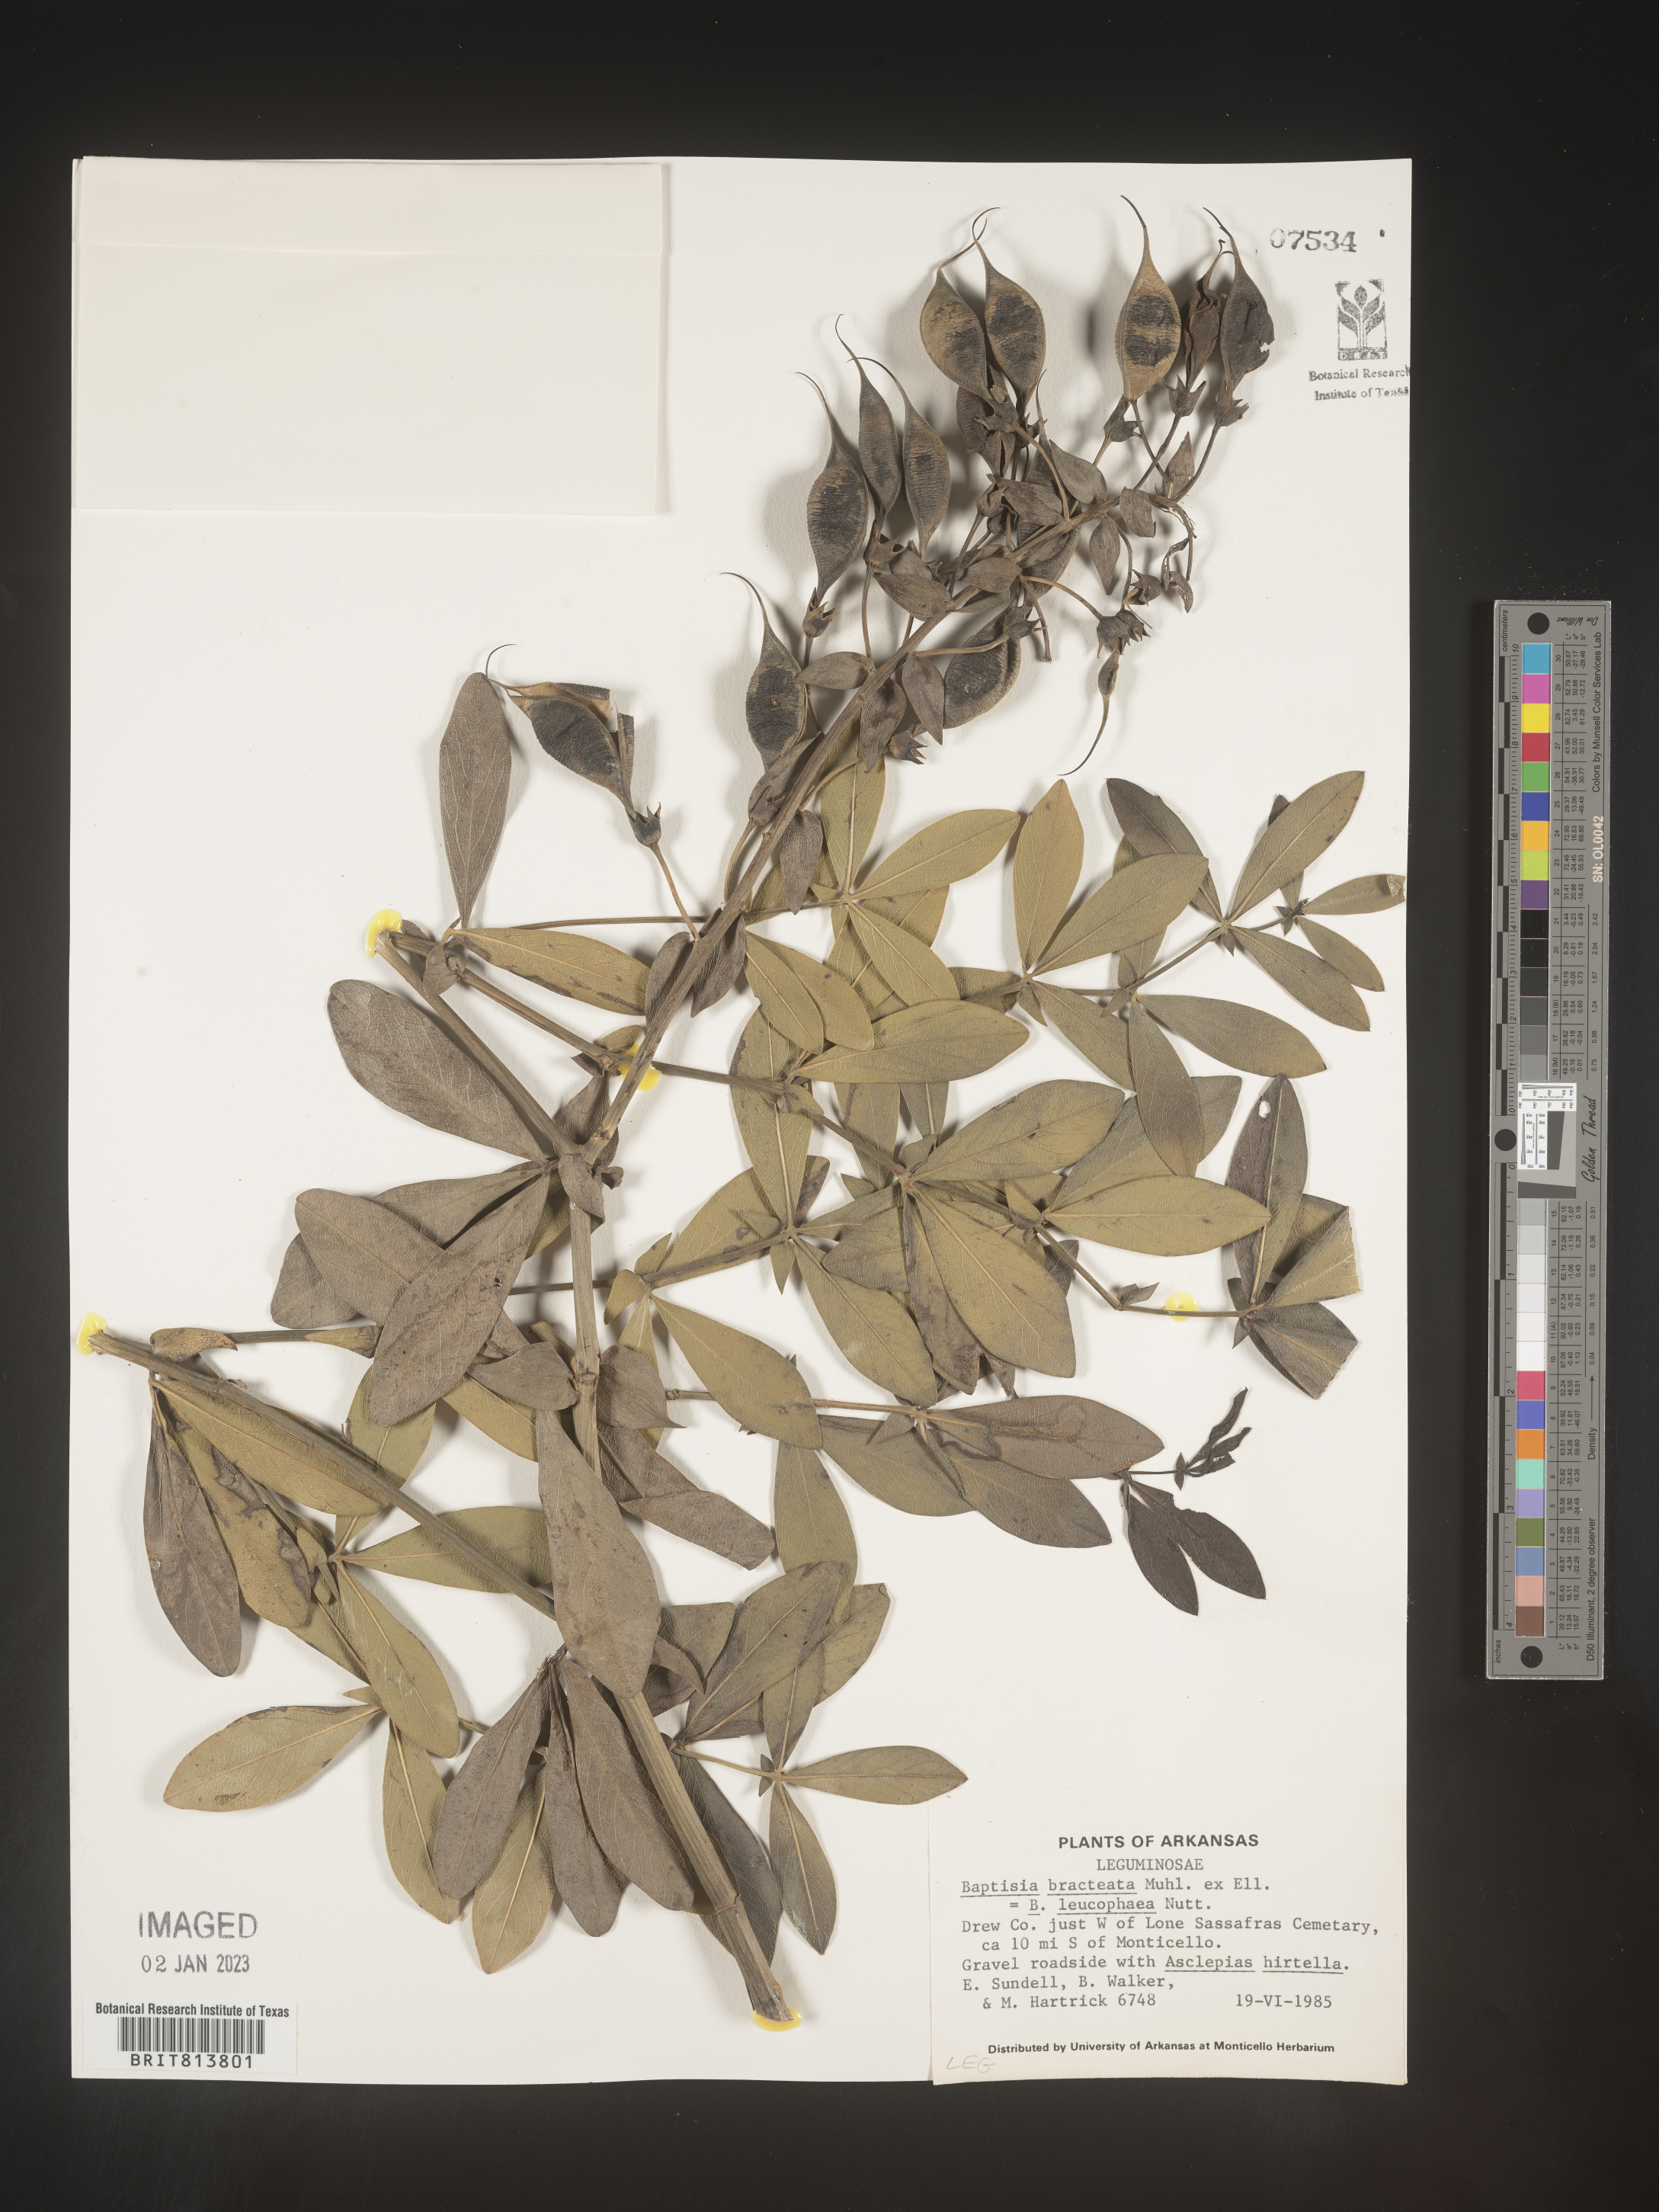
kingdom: Plantae
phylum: Tracheophyta
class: Magnoliopsida
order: Fabales
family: Fabaceae
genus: Baptisia
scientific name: Baptisia bracteata
